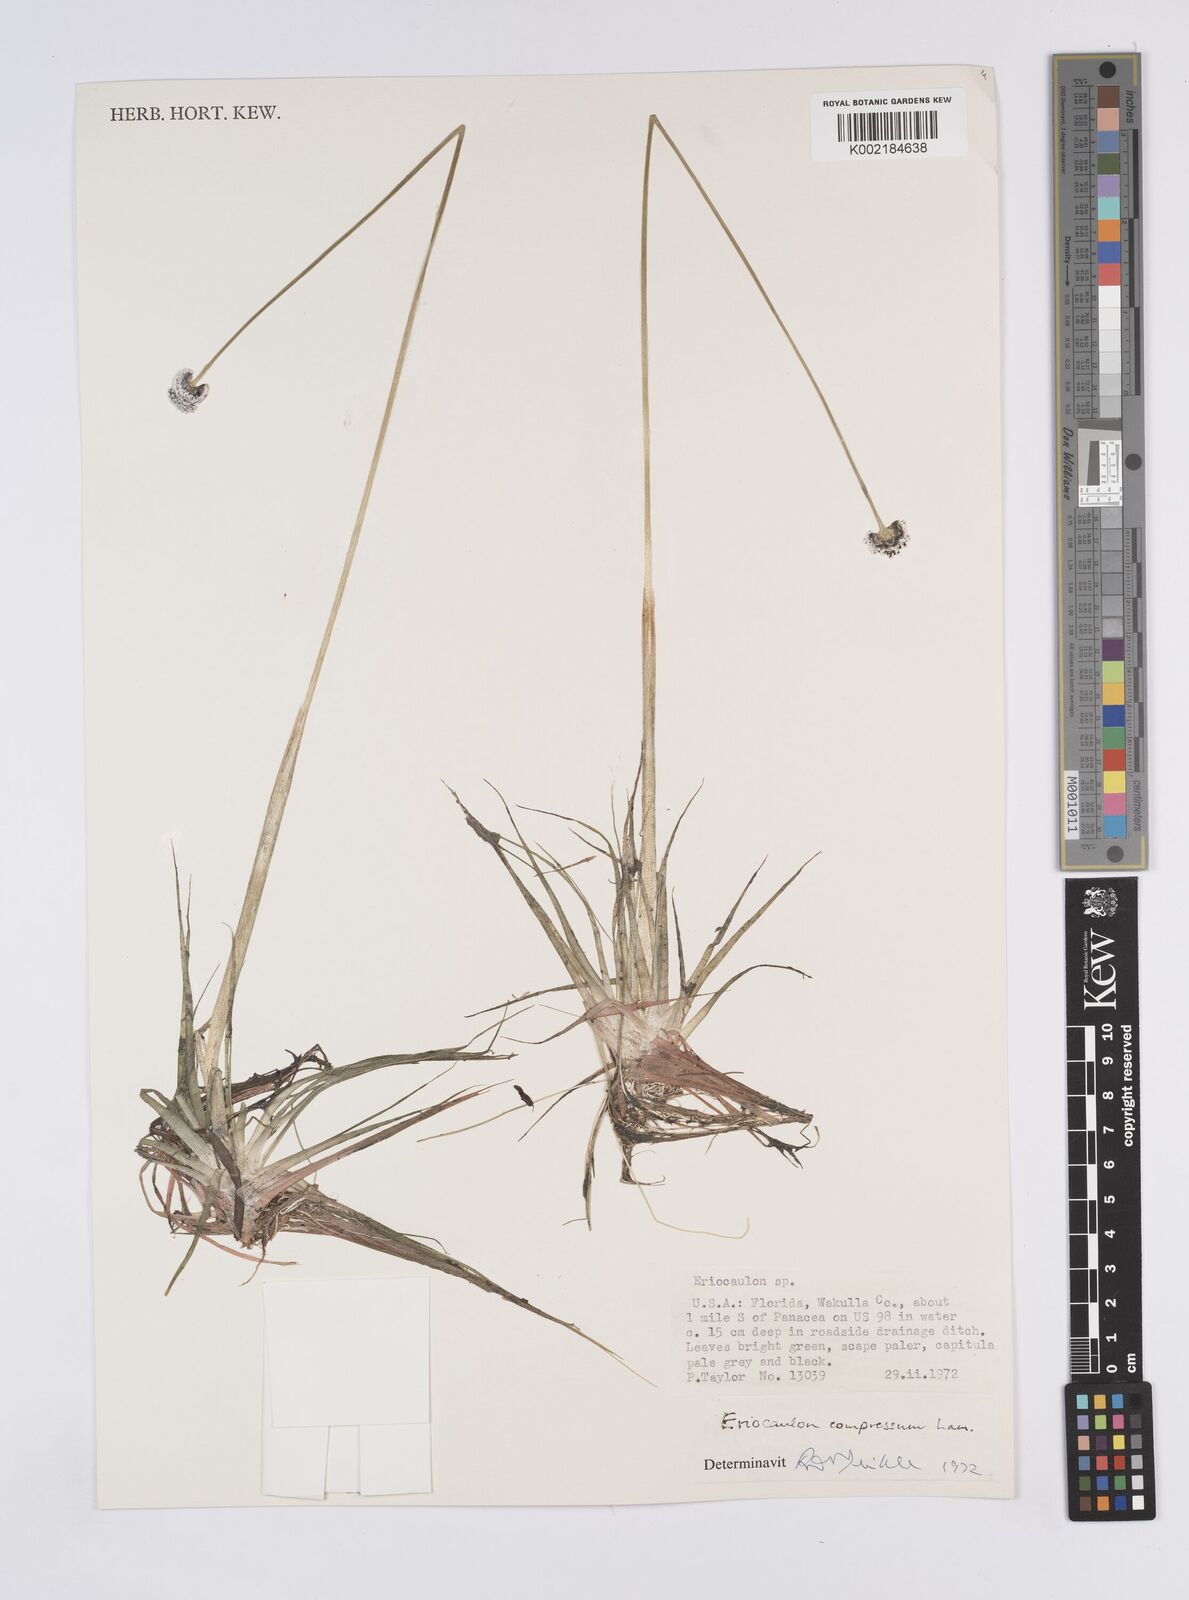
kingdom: Plantae
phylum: Tracheophyta
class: Liliopsida
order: Poales
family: Eriocaulaceae
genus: Eriocaulon
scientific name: Eriocaulon decangulare
